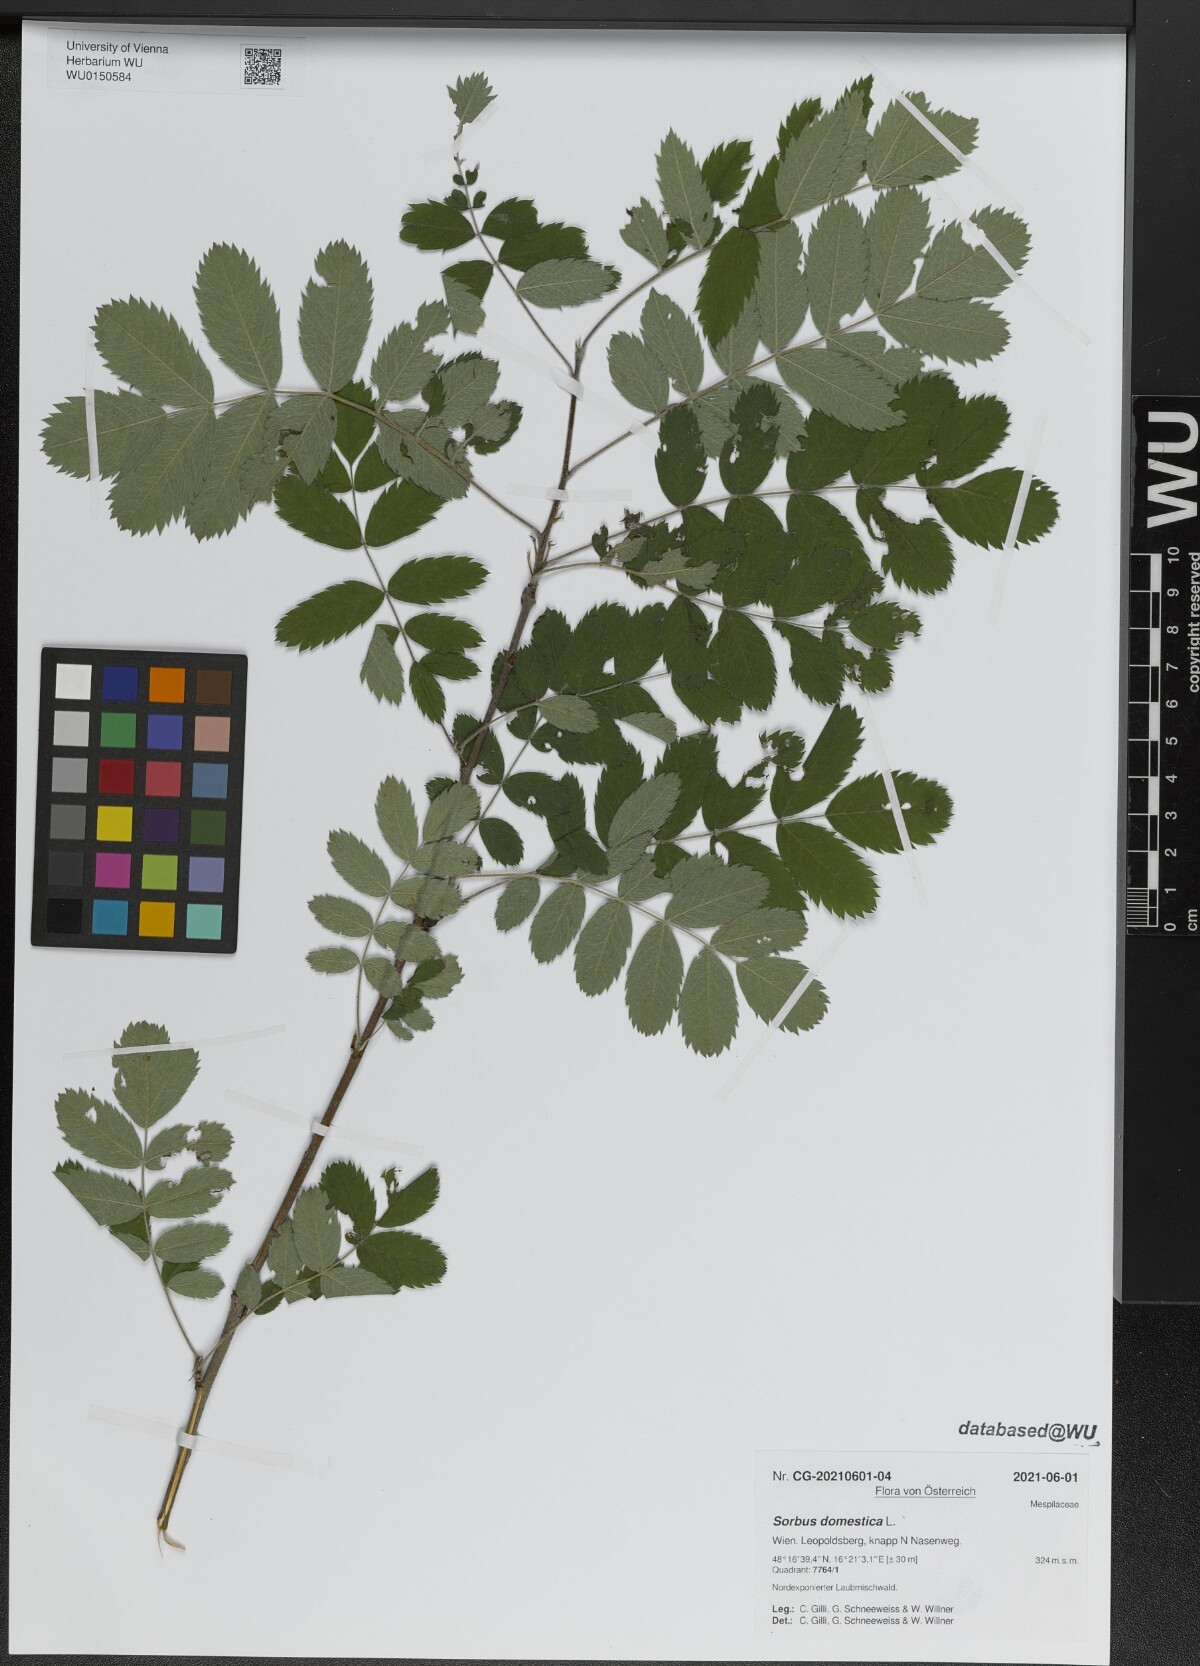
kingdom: Plantae
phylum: Tracheophyta
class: Magnoliopsida
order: Rosales
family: Rosaceae
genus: Cormus
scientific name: Cormus domestica
